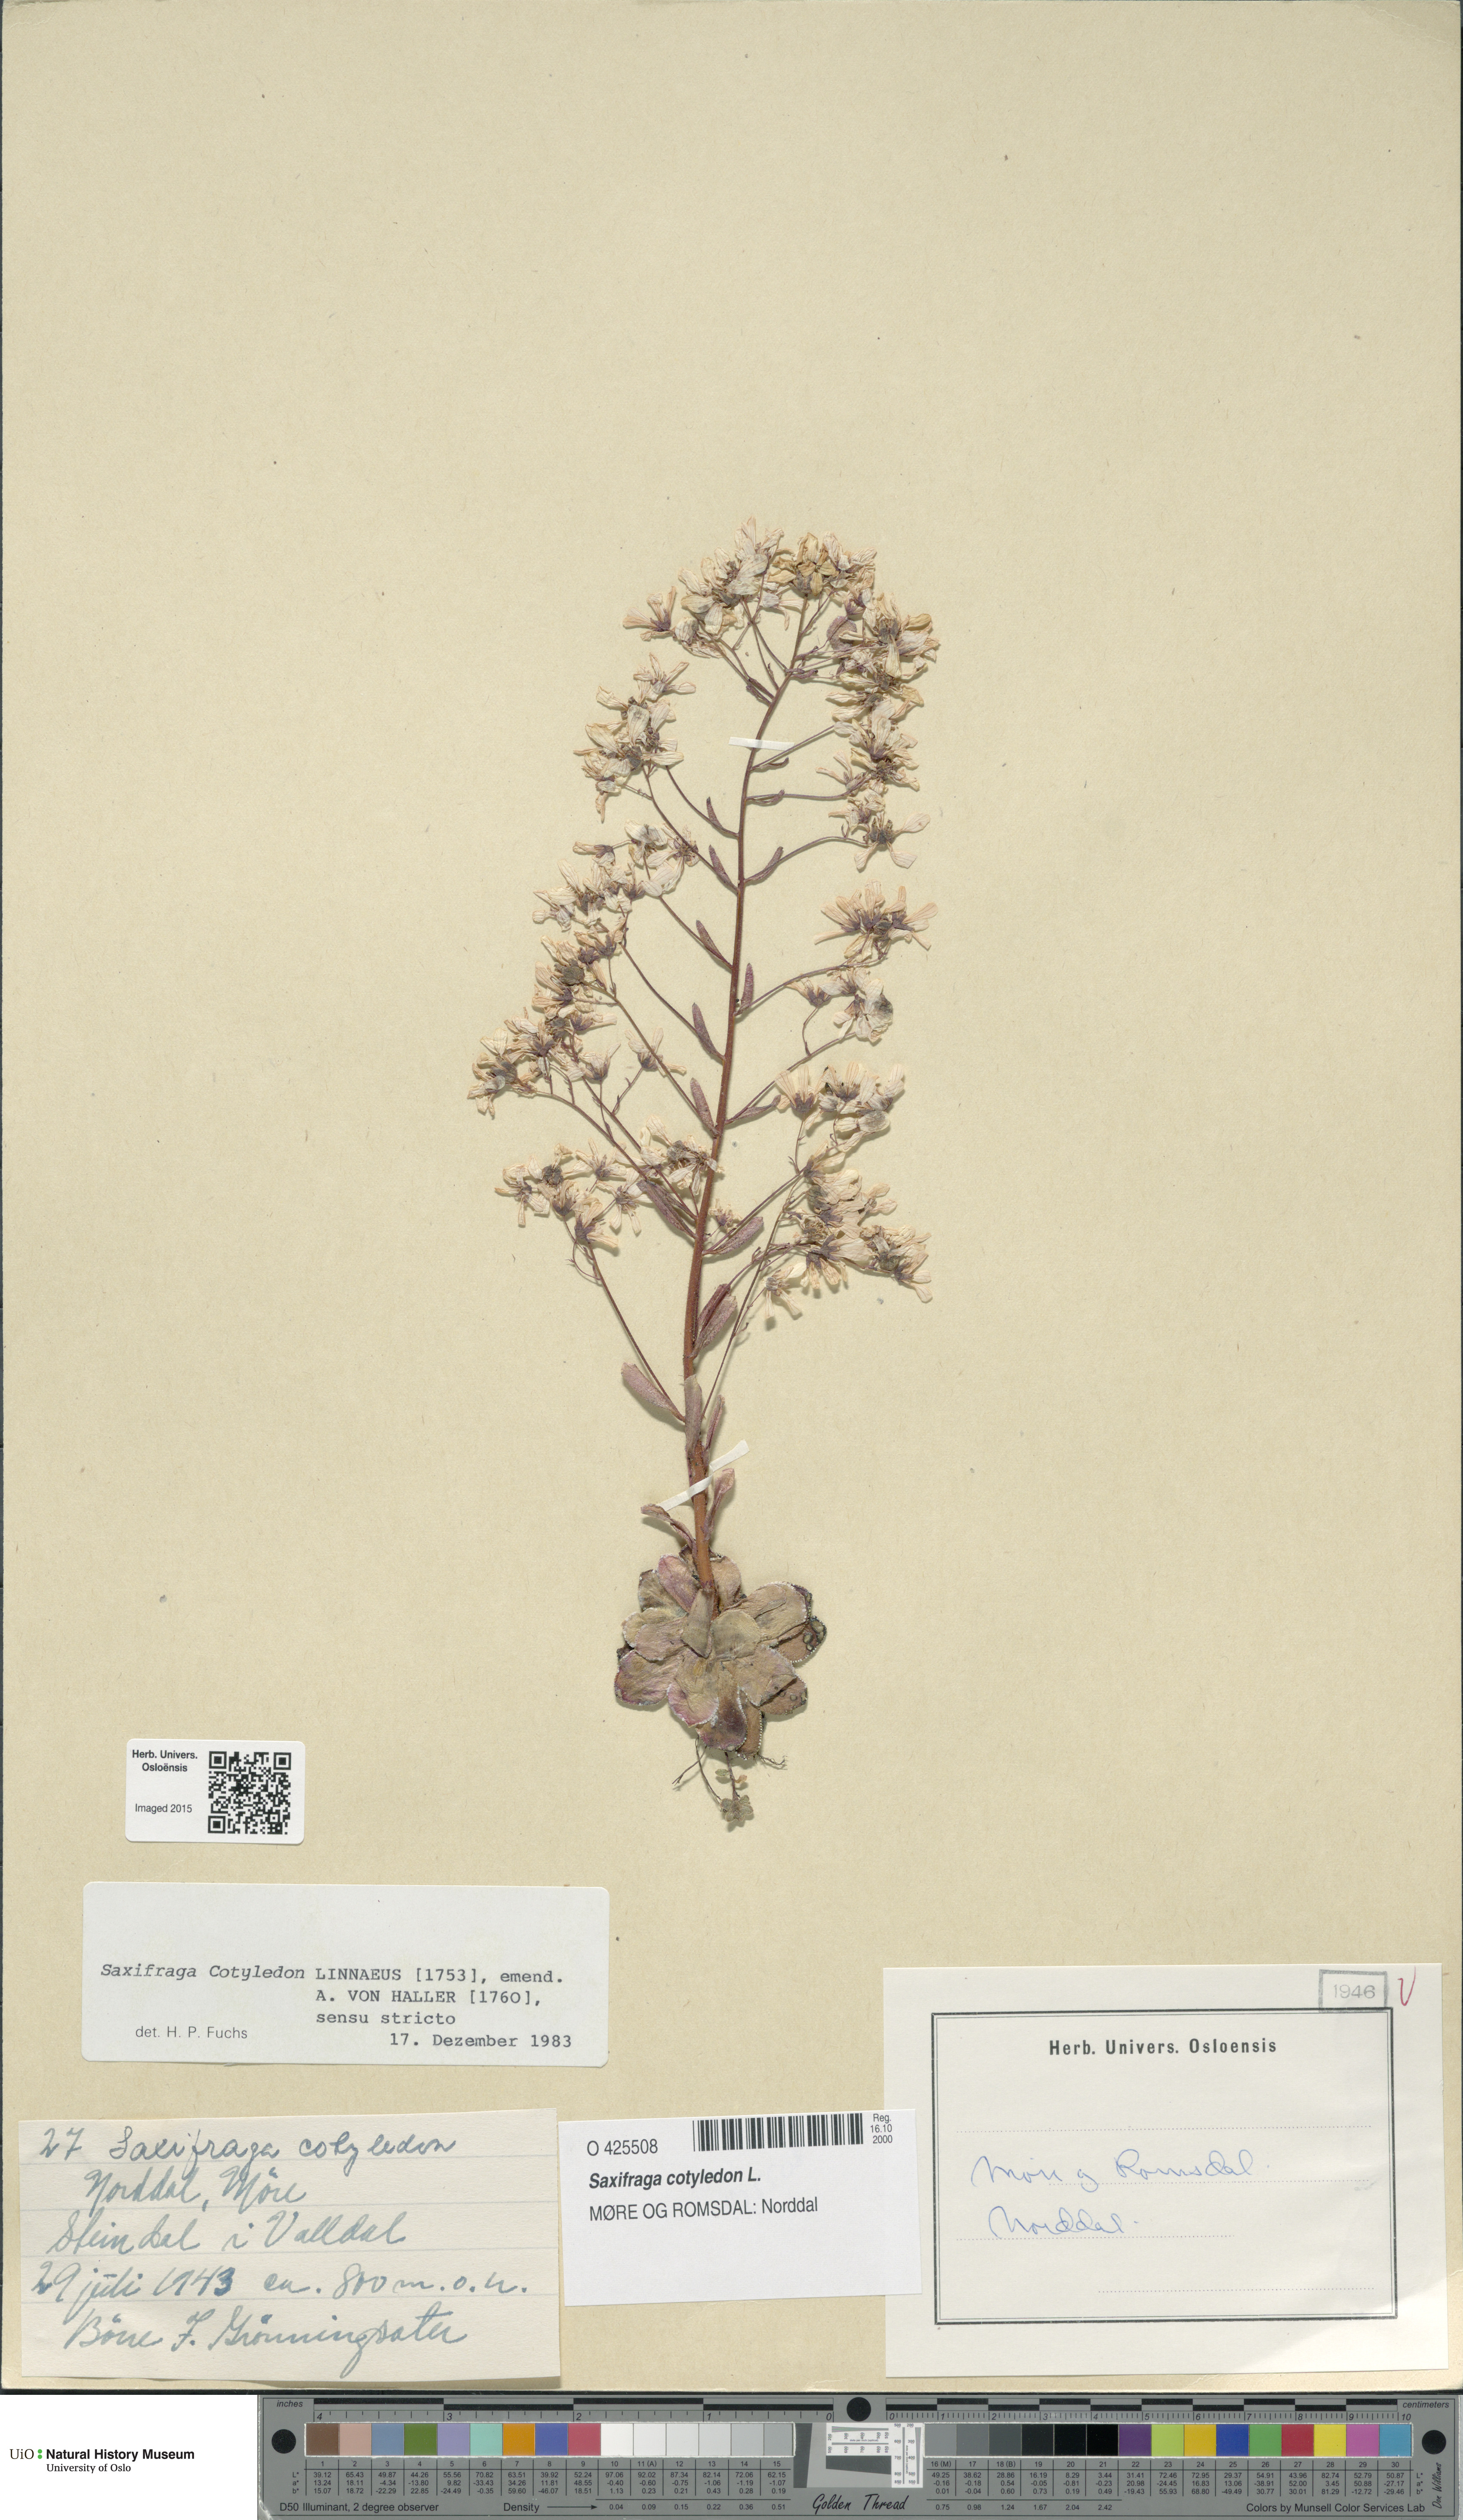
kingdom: Plantae
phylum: Tracheophyta
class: Magnoliopsida
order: Saxifragales
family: Saxifragaceae
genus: Saxifraga
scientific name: Saxifraga cotyledon
